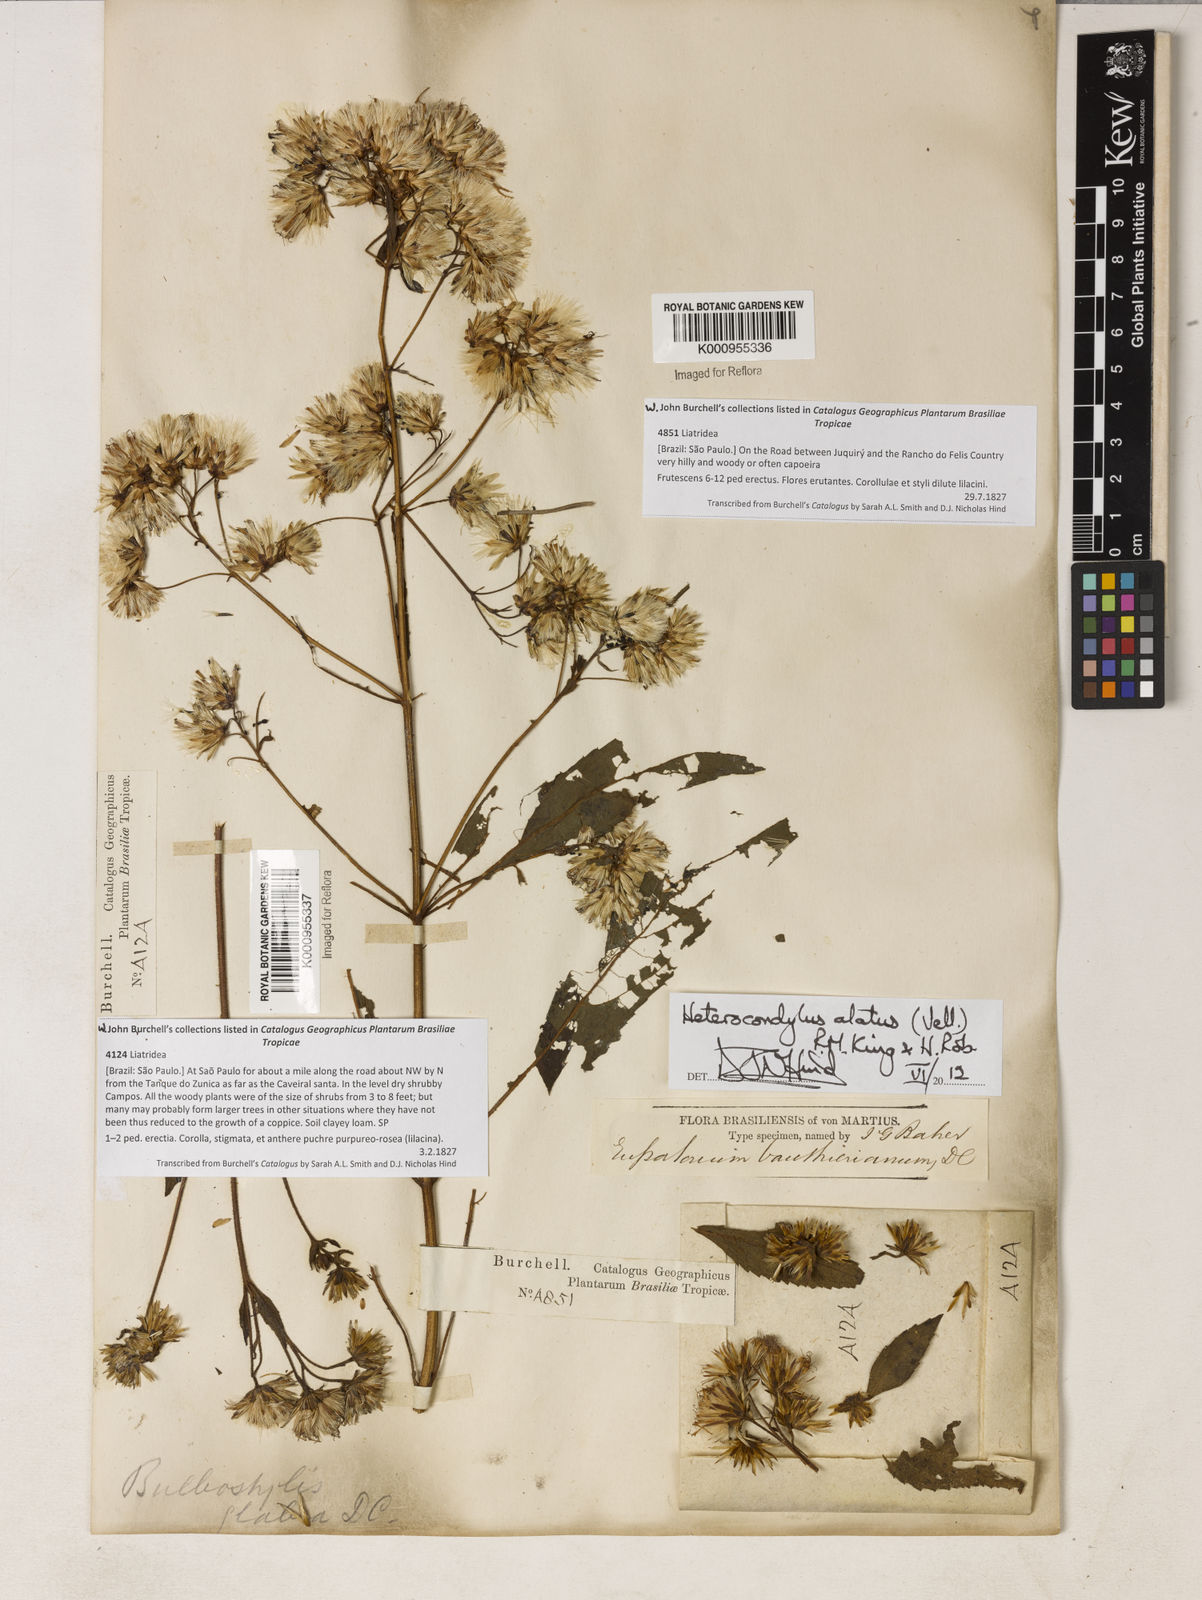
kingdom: Plantae
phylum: Tracheophyta
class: Magnoliopsida
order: Asterales
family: Asteraceae
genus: Heterocondylus
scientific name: Heterocondylus alatus
